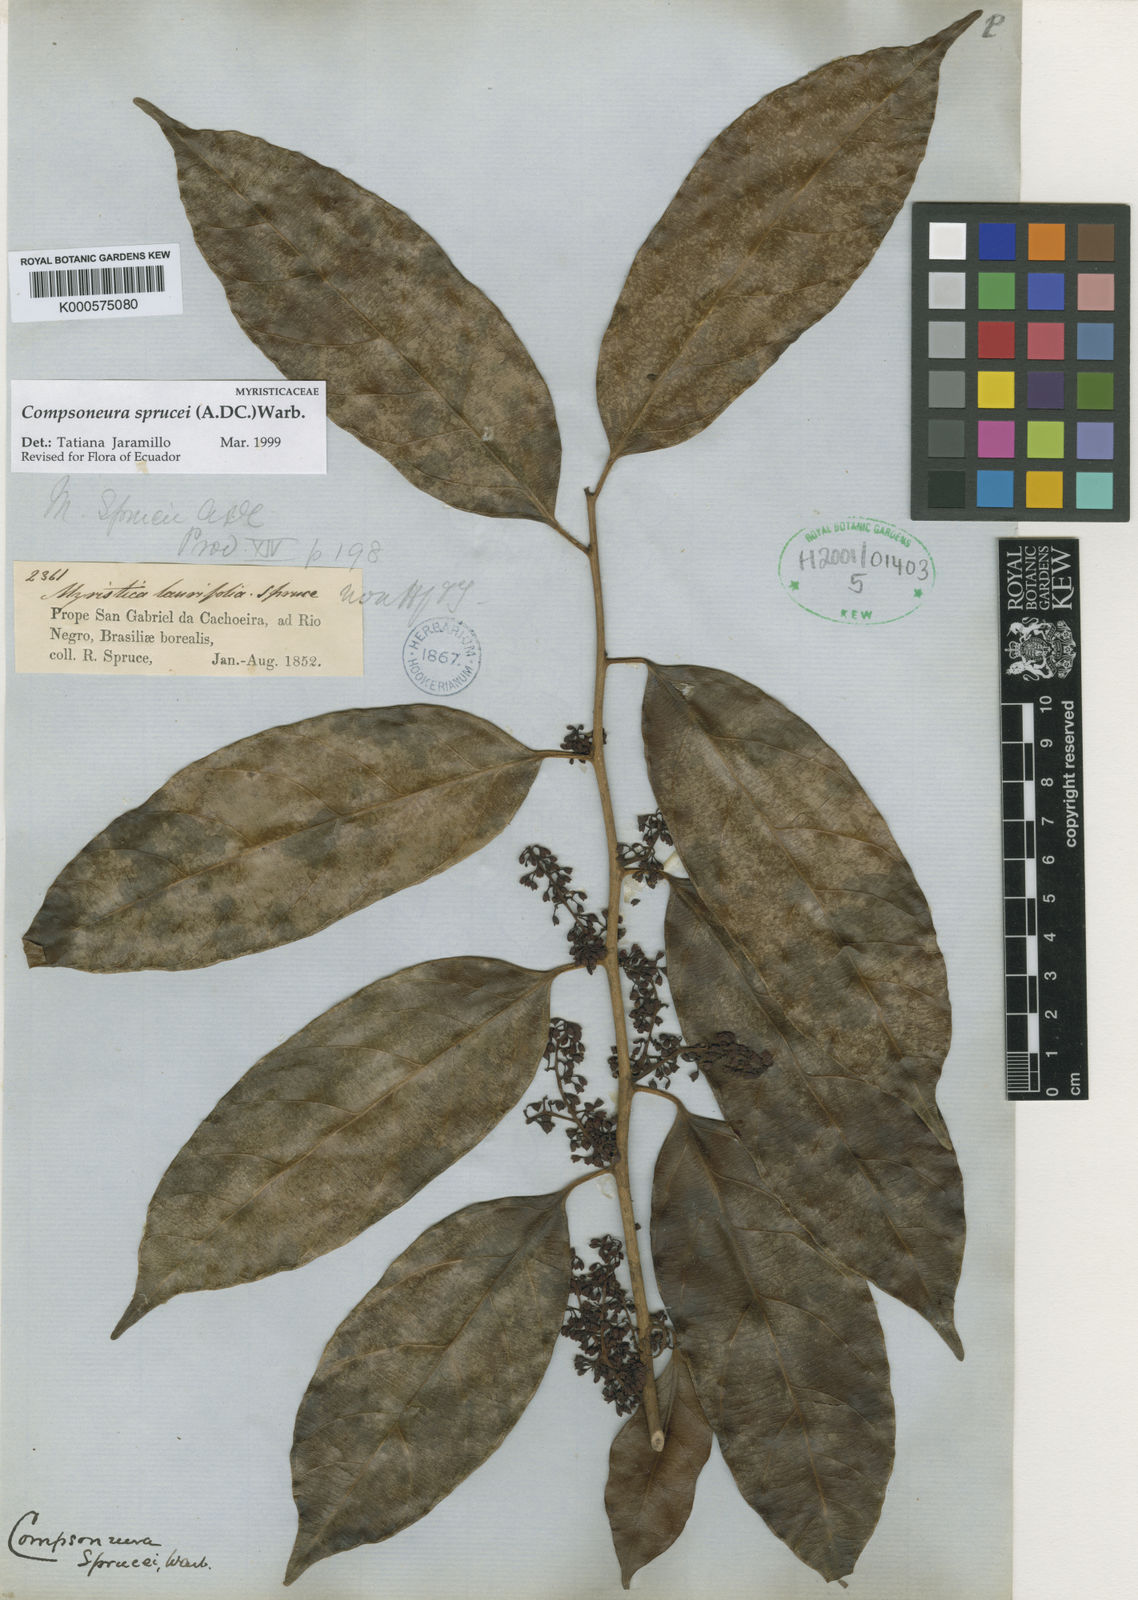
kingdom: Plantae
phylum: Tracheophyta
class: Magnoliopsida
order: Magnoliales
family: Myristicaceae
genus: Compsoneura
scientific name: Compsoneura sprucei
